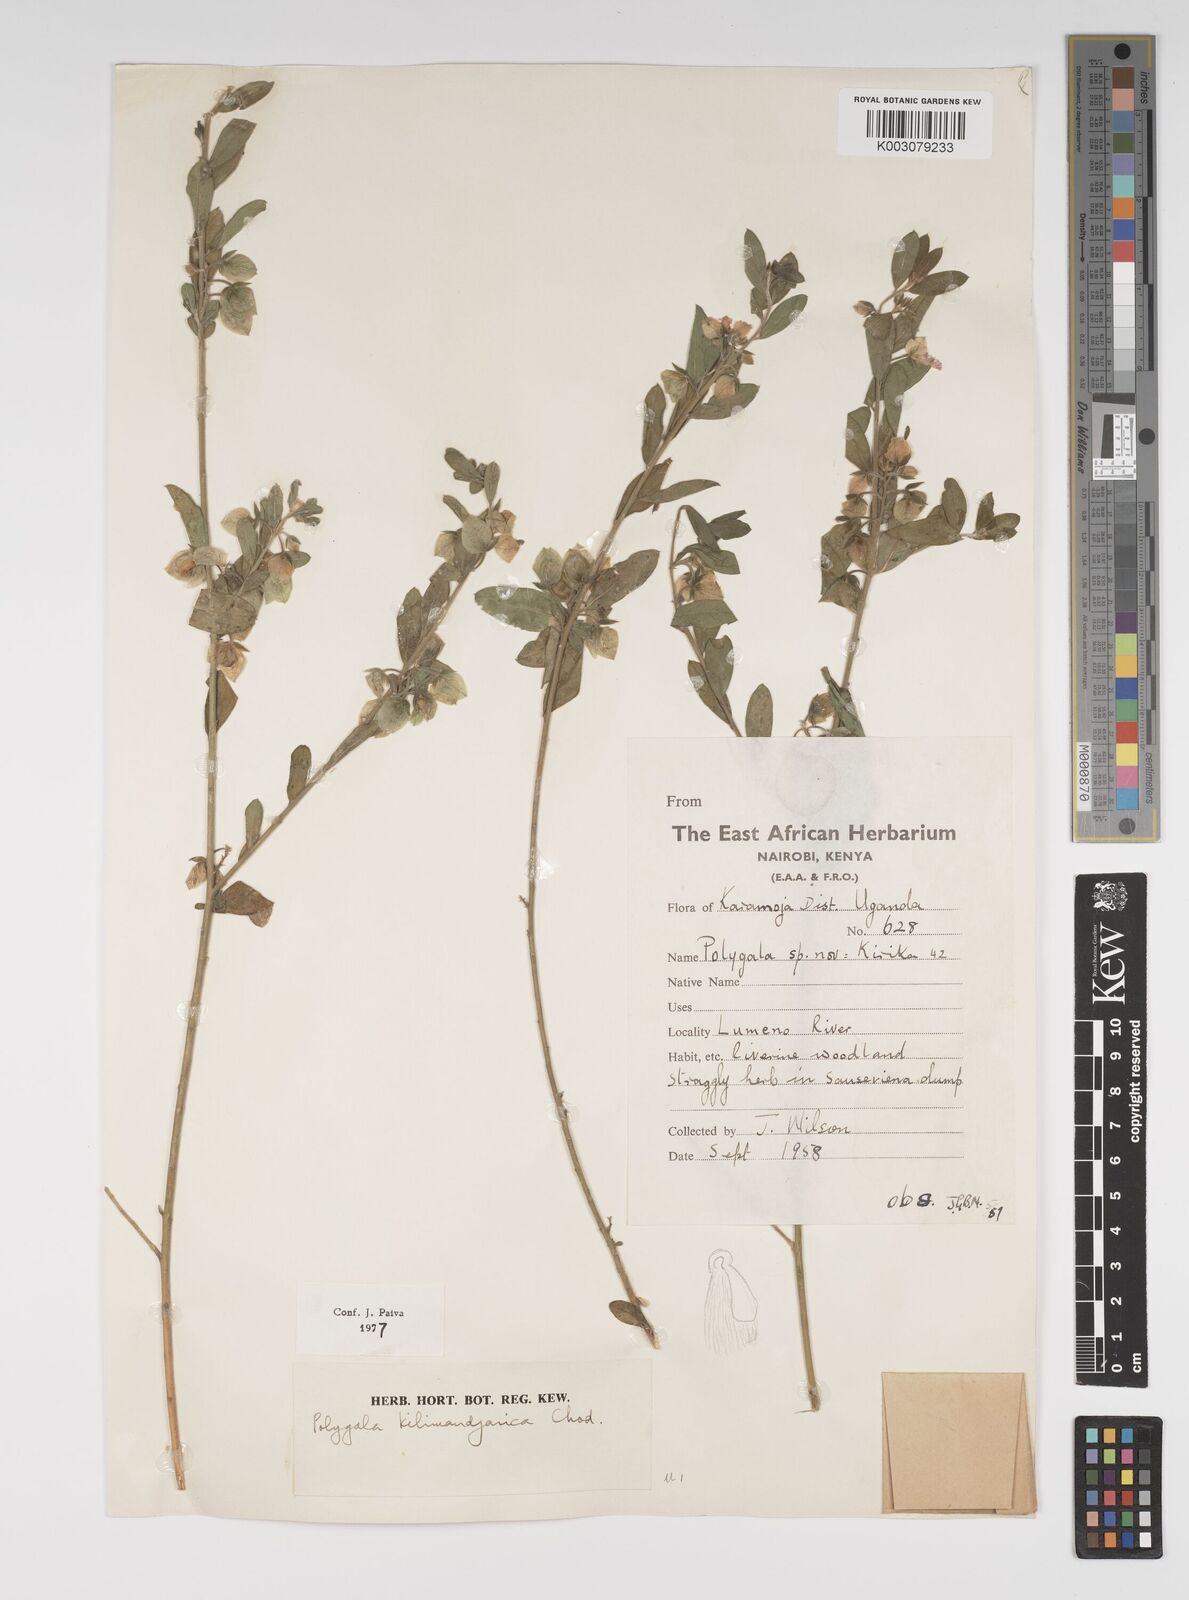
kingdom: Plantae
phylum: Tracheophyta
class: Magnoliopsida
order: Fabales
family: Polygalaceae
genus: Polygala
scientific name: Polygala kilimandjarica
